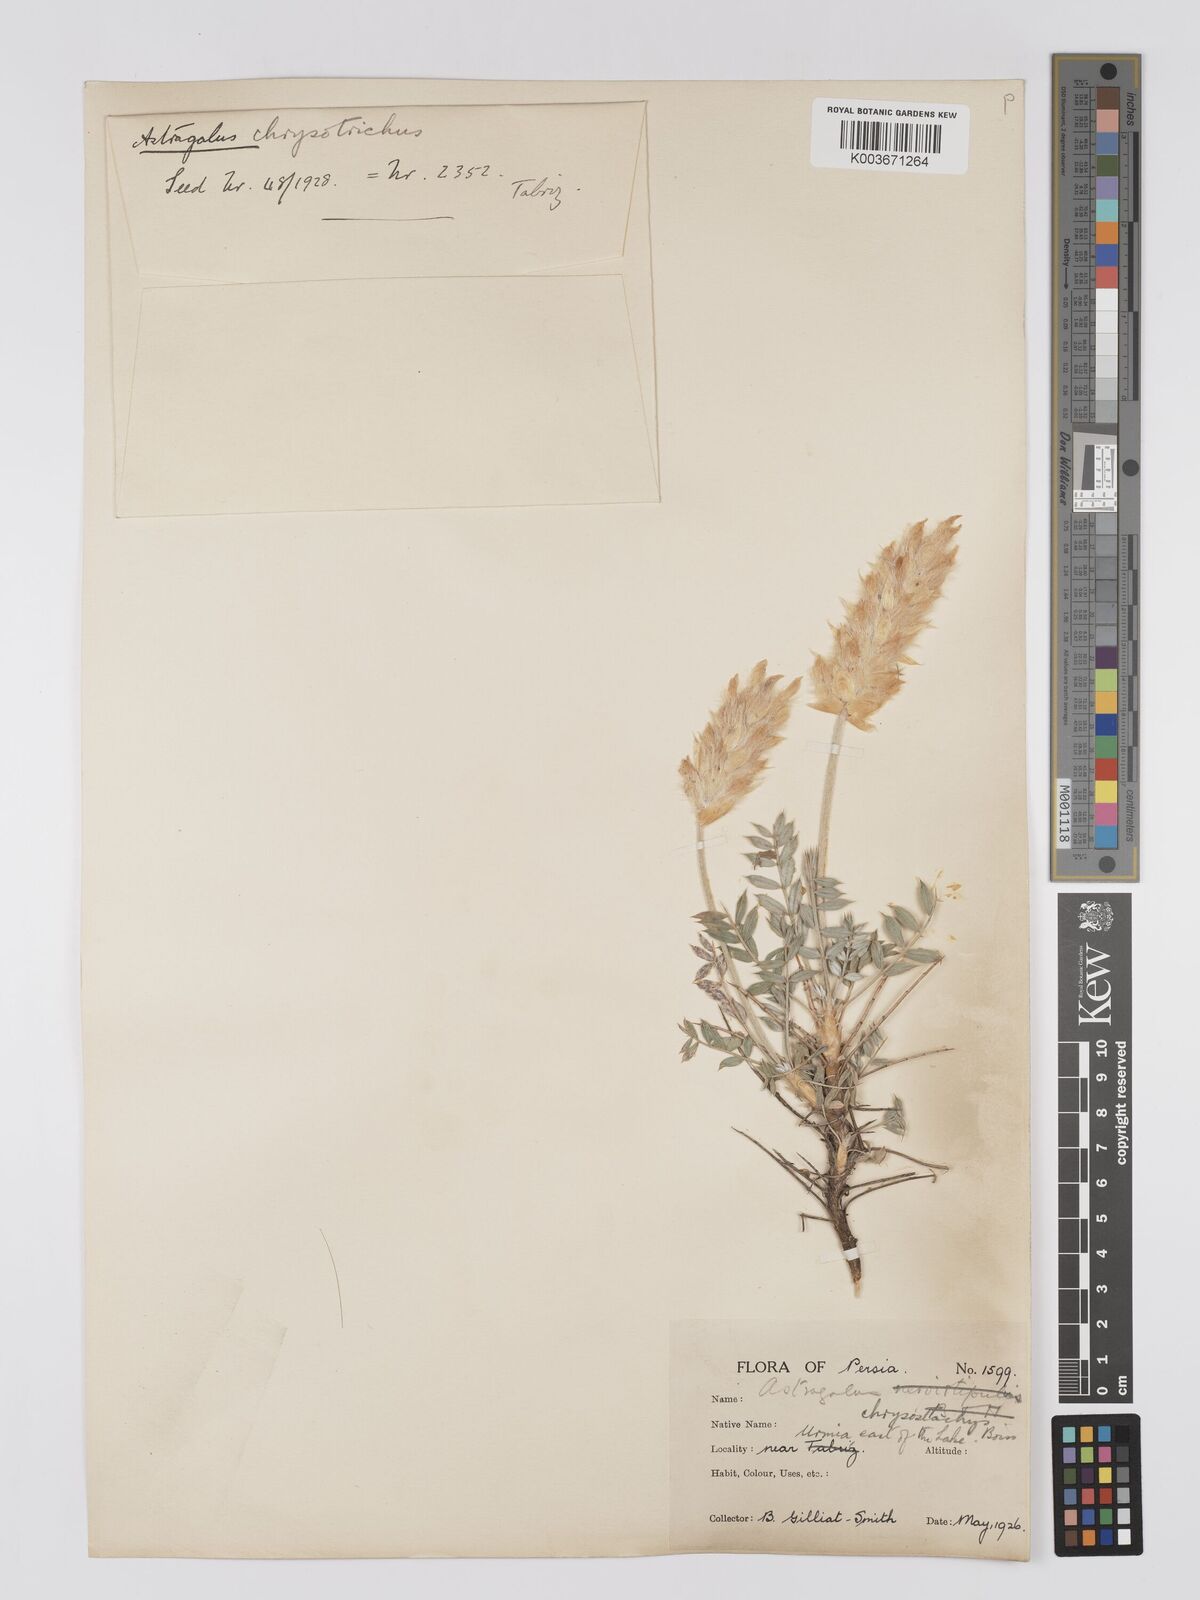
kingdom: Plantae
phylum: Tracheophyta
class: Magnoliopsida
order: Fabales
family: Fabaceae
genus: Astragalus
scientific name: Astragalus chrysostachys
